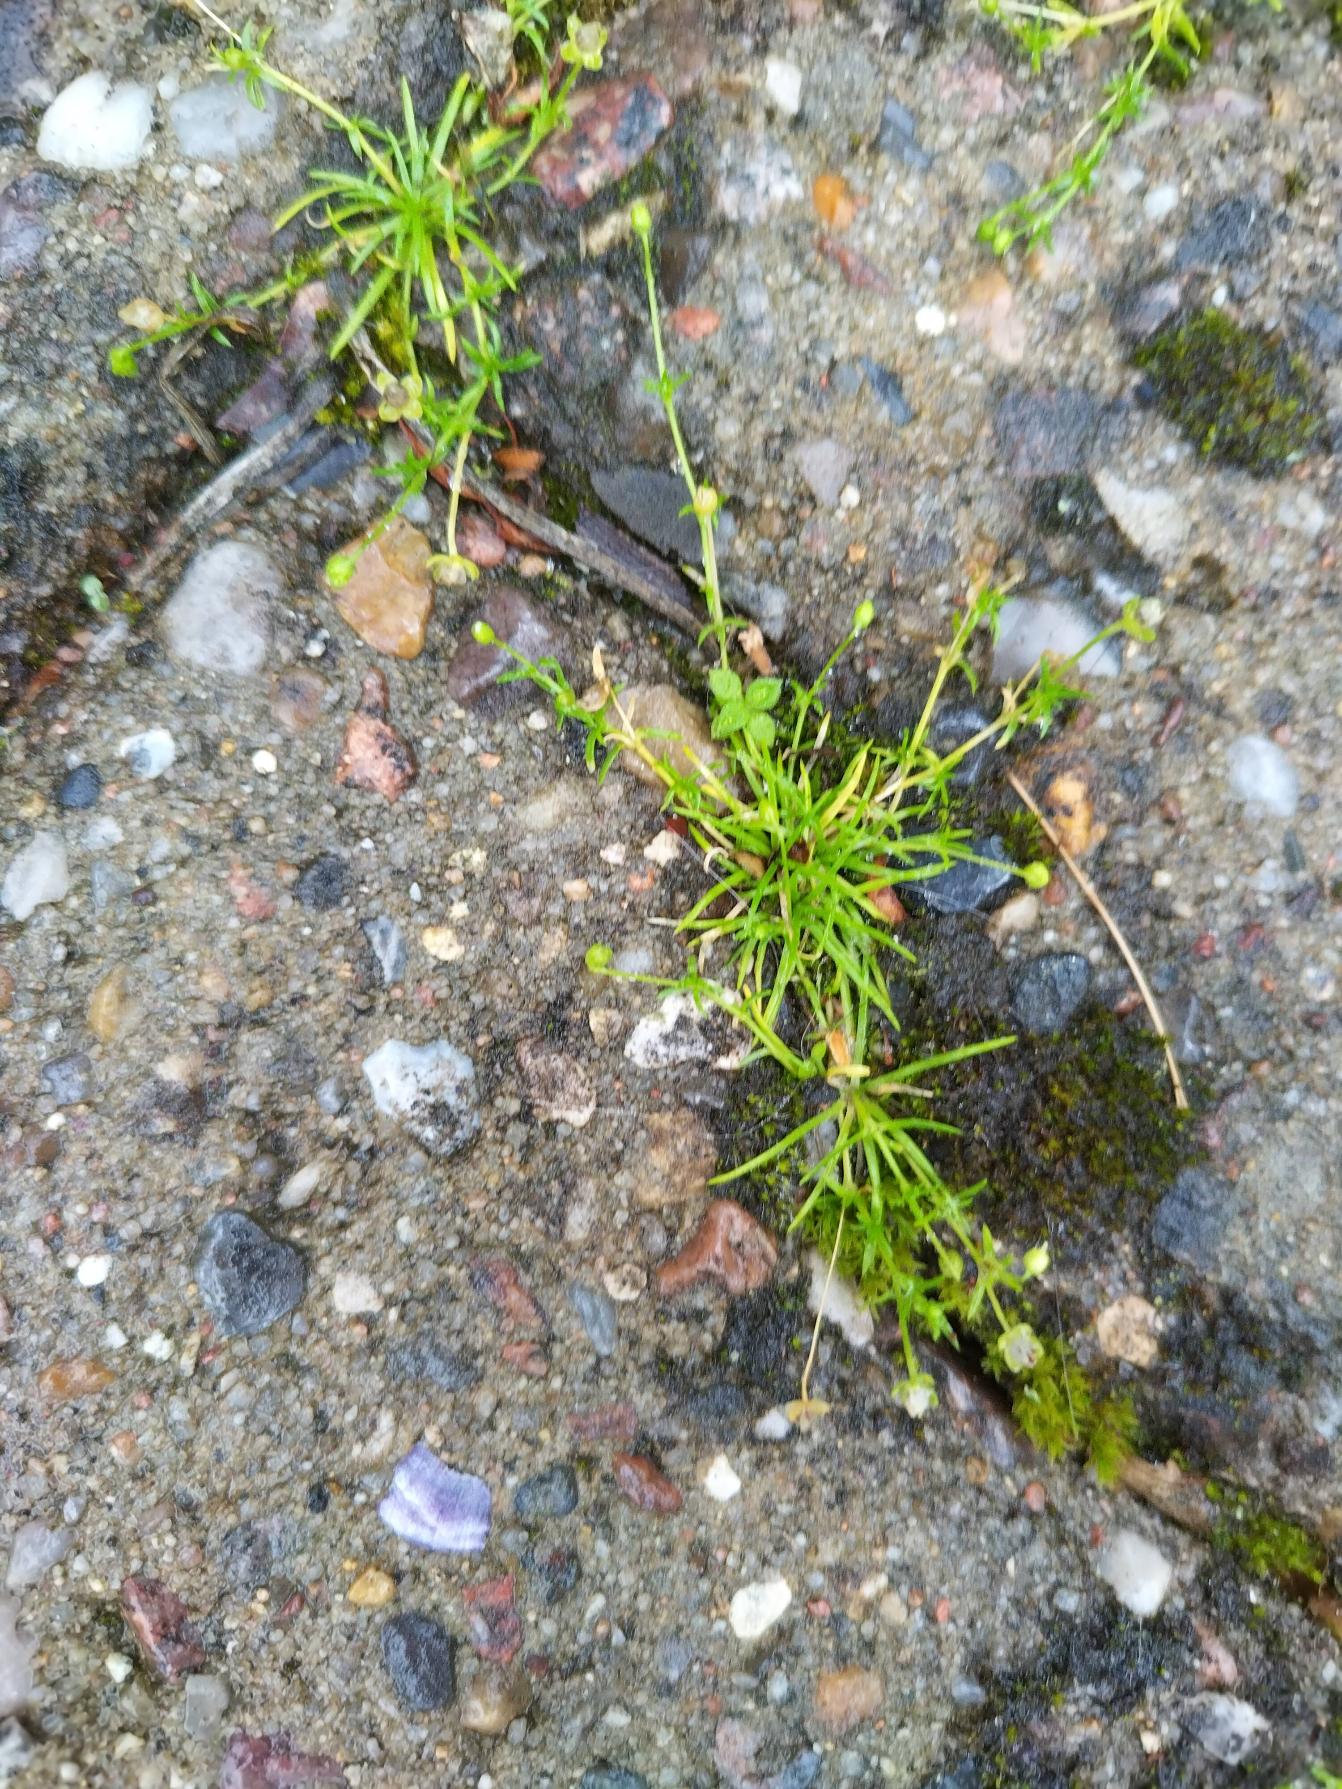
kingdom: Plantae
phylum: Tracheophyta
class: Magnoliopsida
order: Caryophyllales
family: Caryophyllaceae
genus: Sagina
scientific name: Sagina procumbens
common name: Almindelig firling
